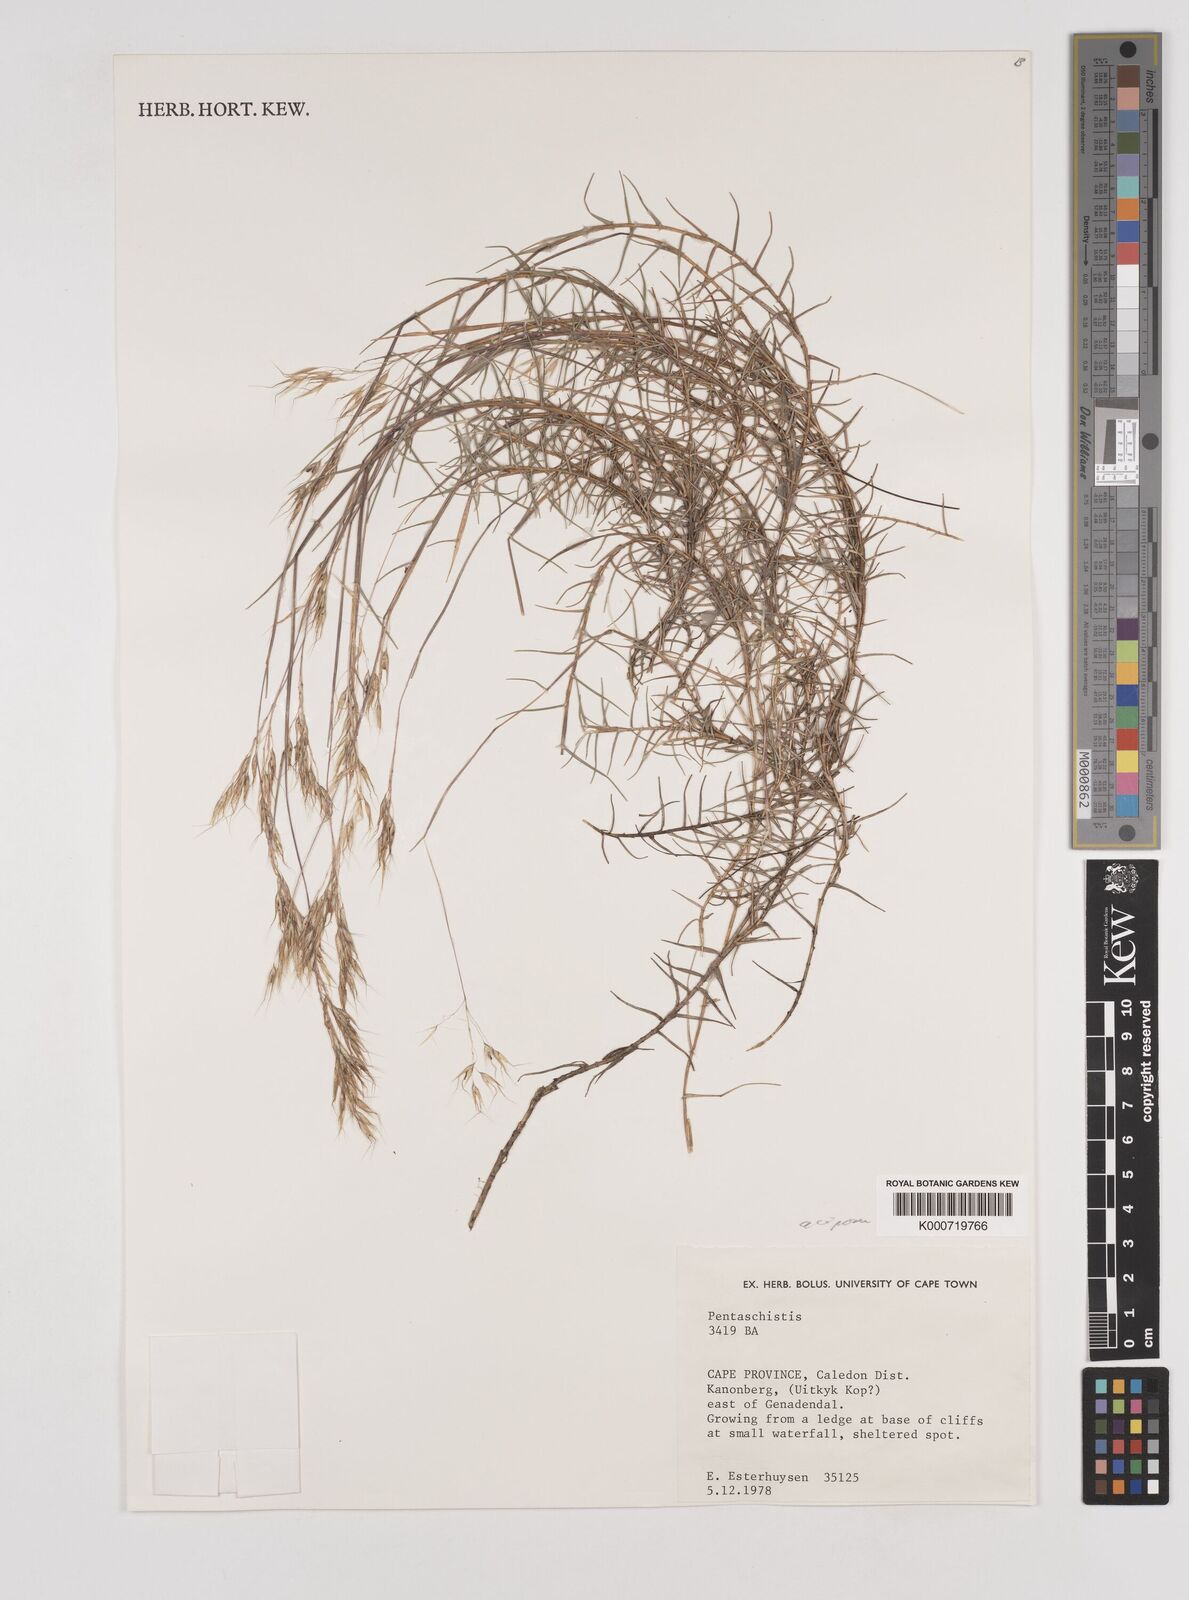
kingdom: Plantae
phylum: Tracheophyta
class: Liliopsida
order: Poales
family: Poaceae
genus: Pentameris
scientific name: Pentameris acinosa
